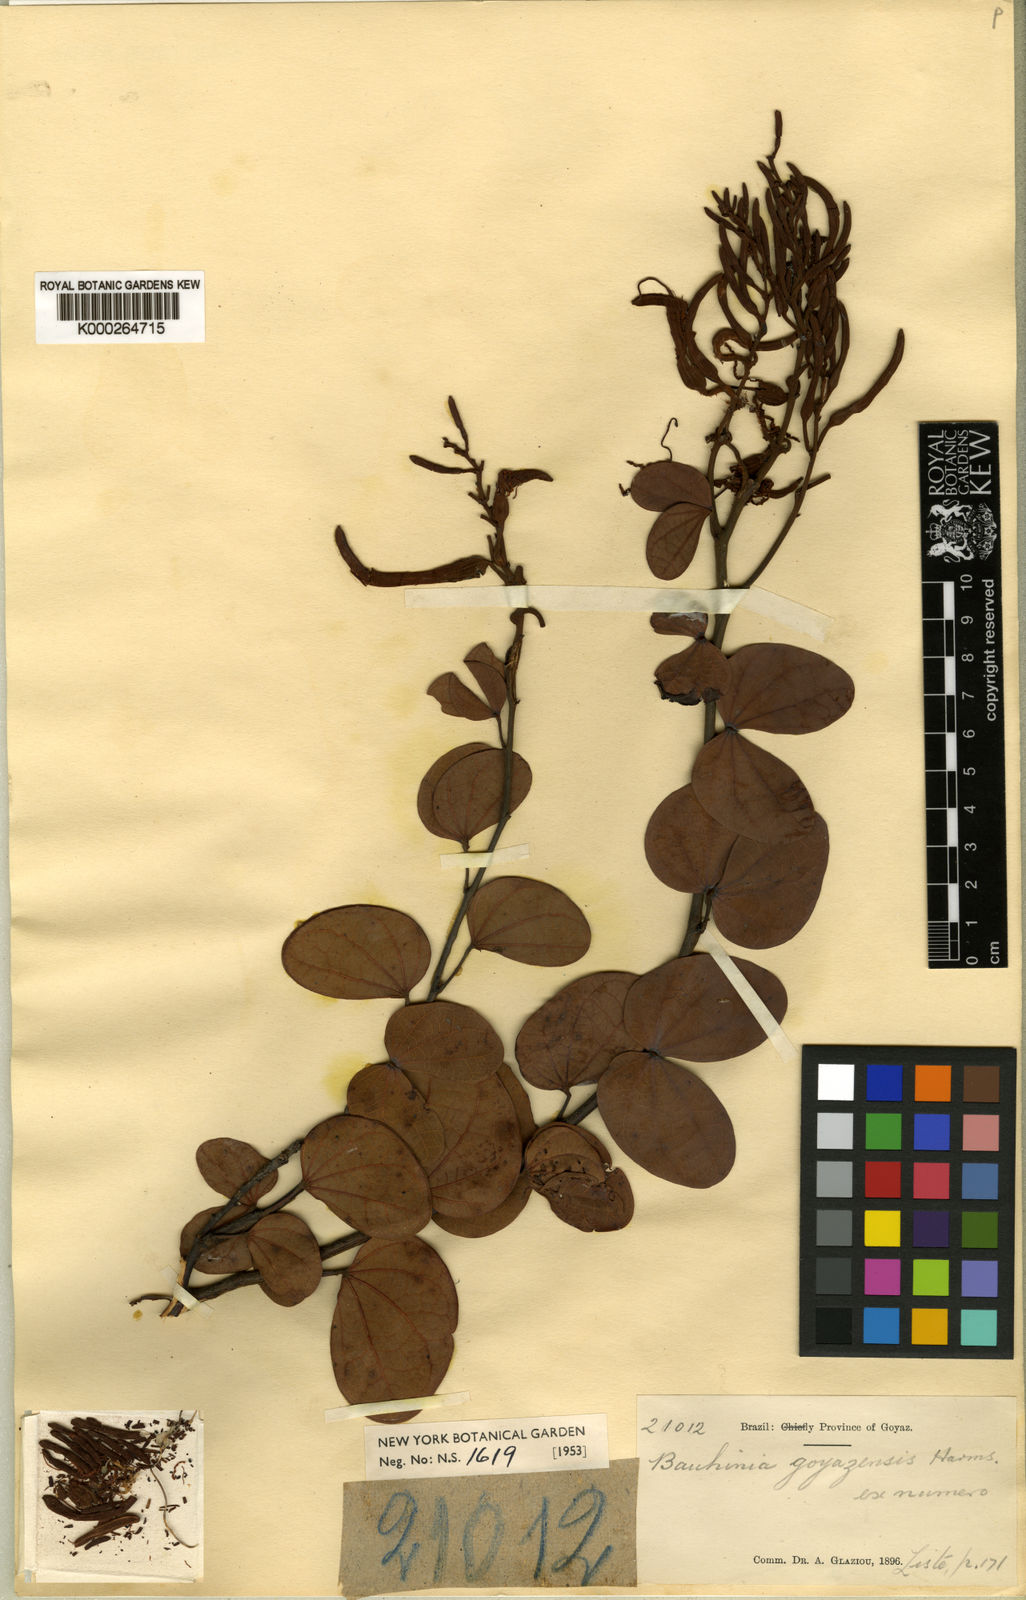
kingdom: Plantae
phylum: Tracheophyta
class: Magnoliopsida
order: Fabales
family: Fabaceae
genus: Bauhinia
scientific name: Bauhinia goyazensis
